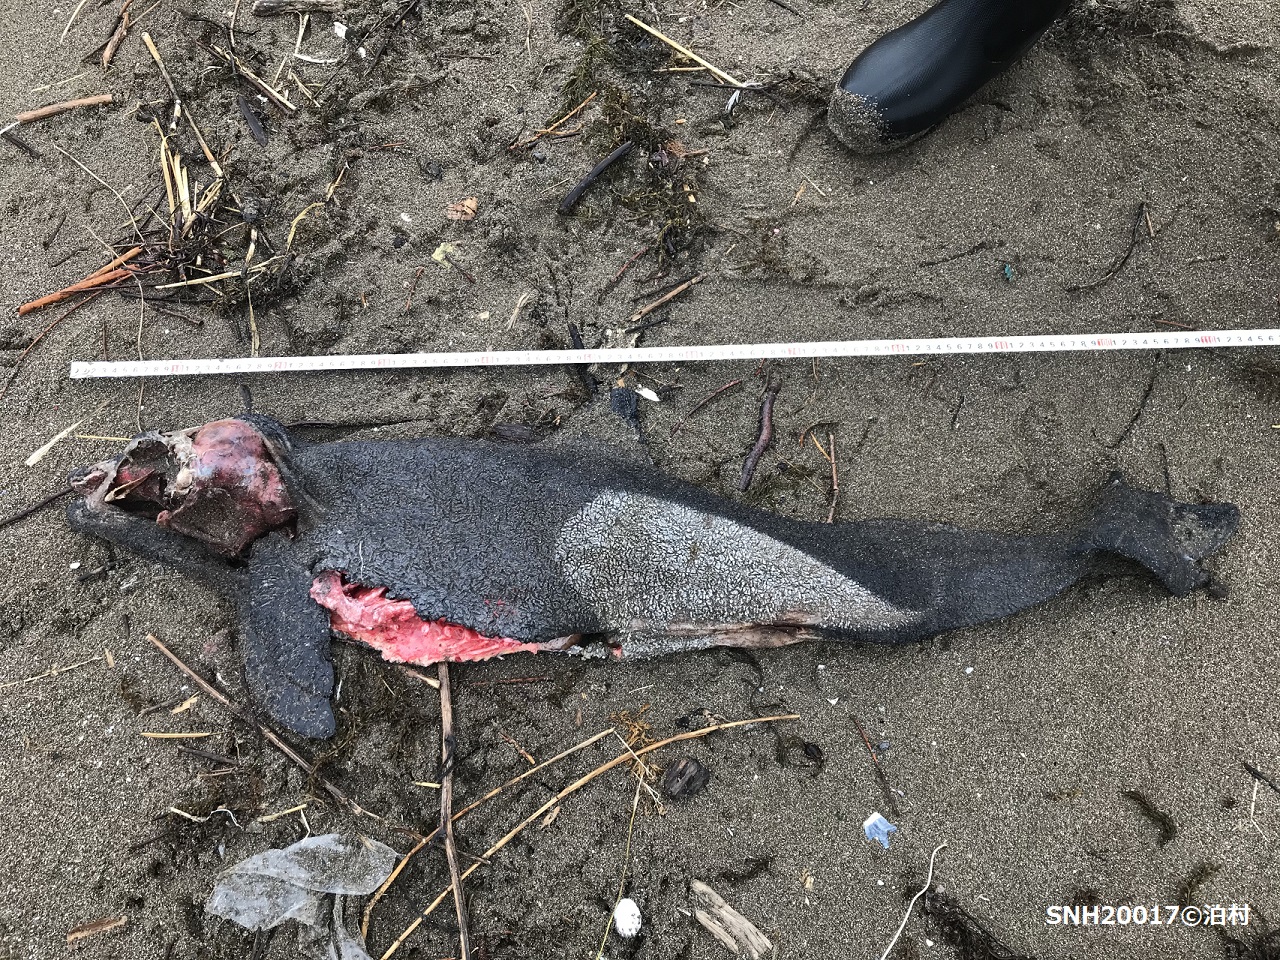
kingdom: Animalia
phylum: Chordata
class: Mammalia
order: Cetacea
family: Phocoenidae
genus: Phocoenoides
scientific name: Phocoenoides dalli
